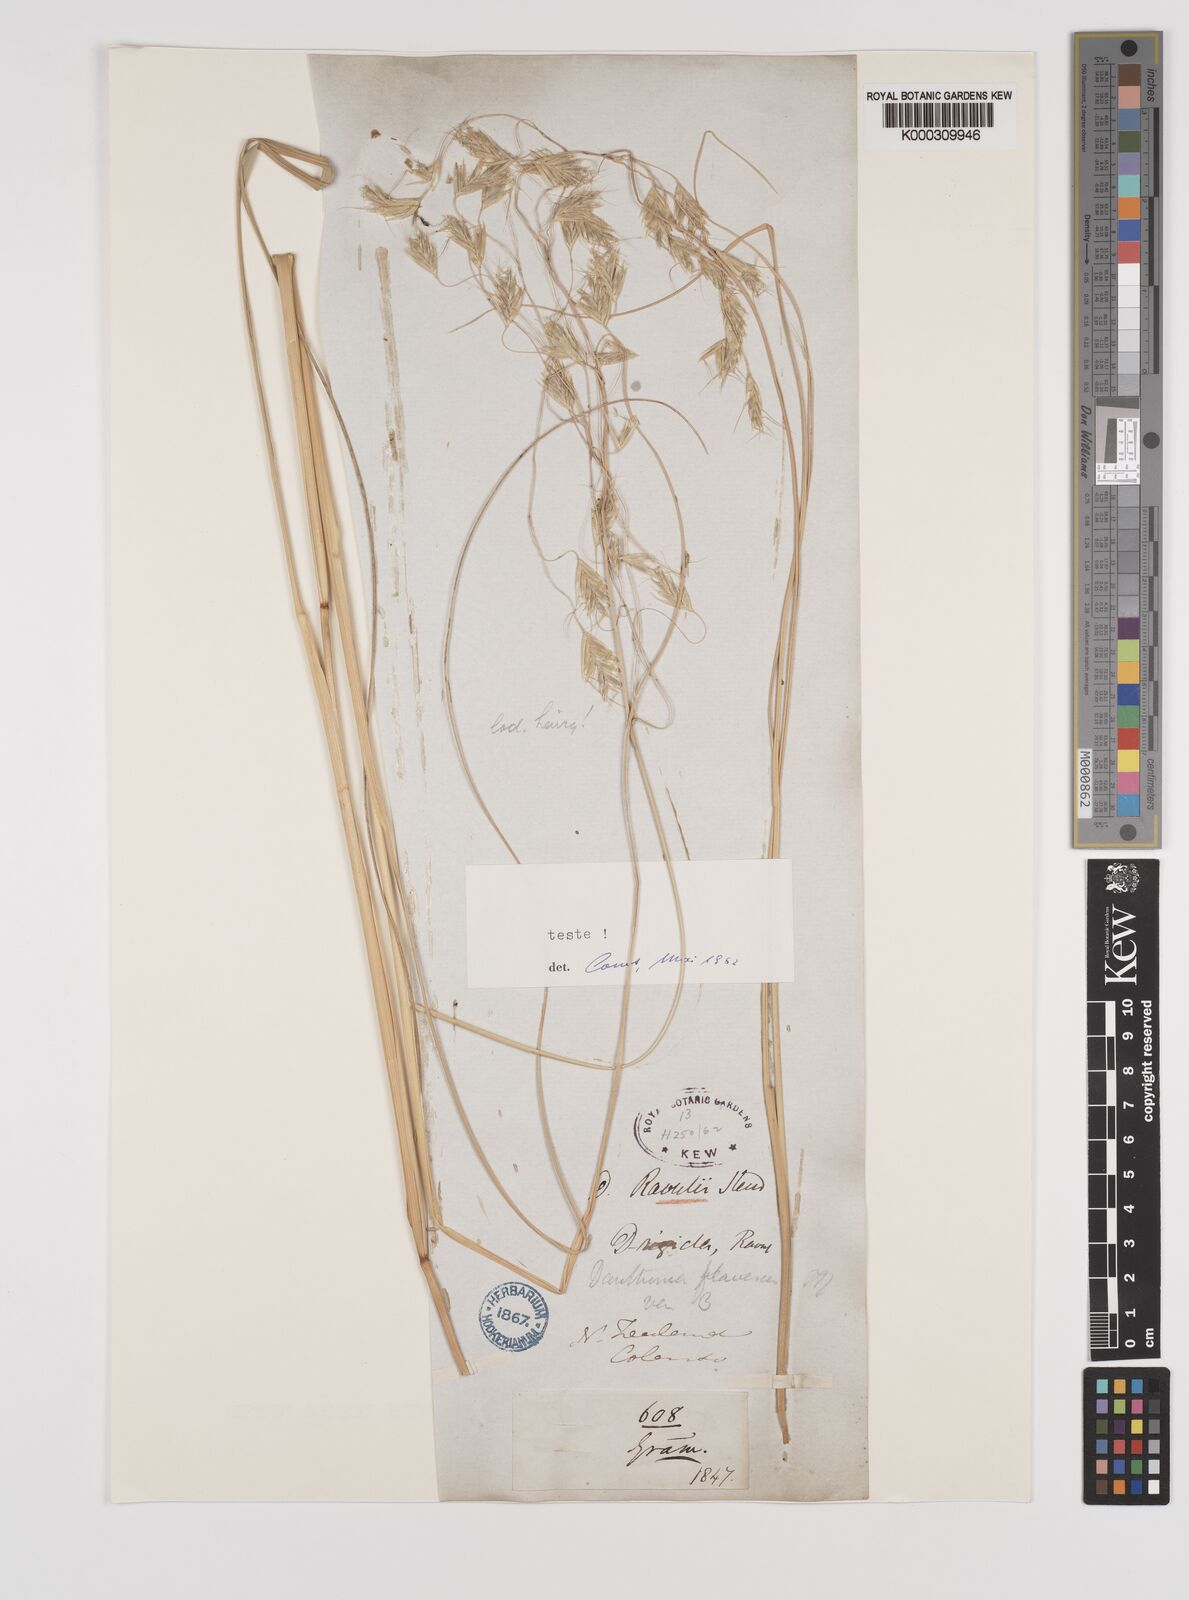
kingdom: Plantae
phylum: Tracheophyta
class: Liliopsida
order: Poales
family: Poaceae
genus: Chionochloa
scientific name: Chionochloa pallens
